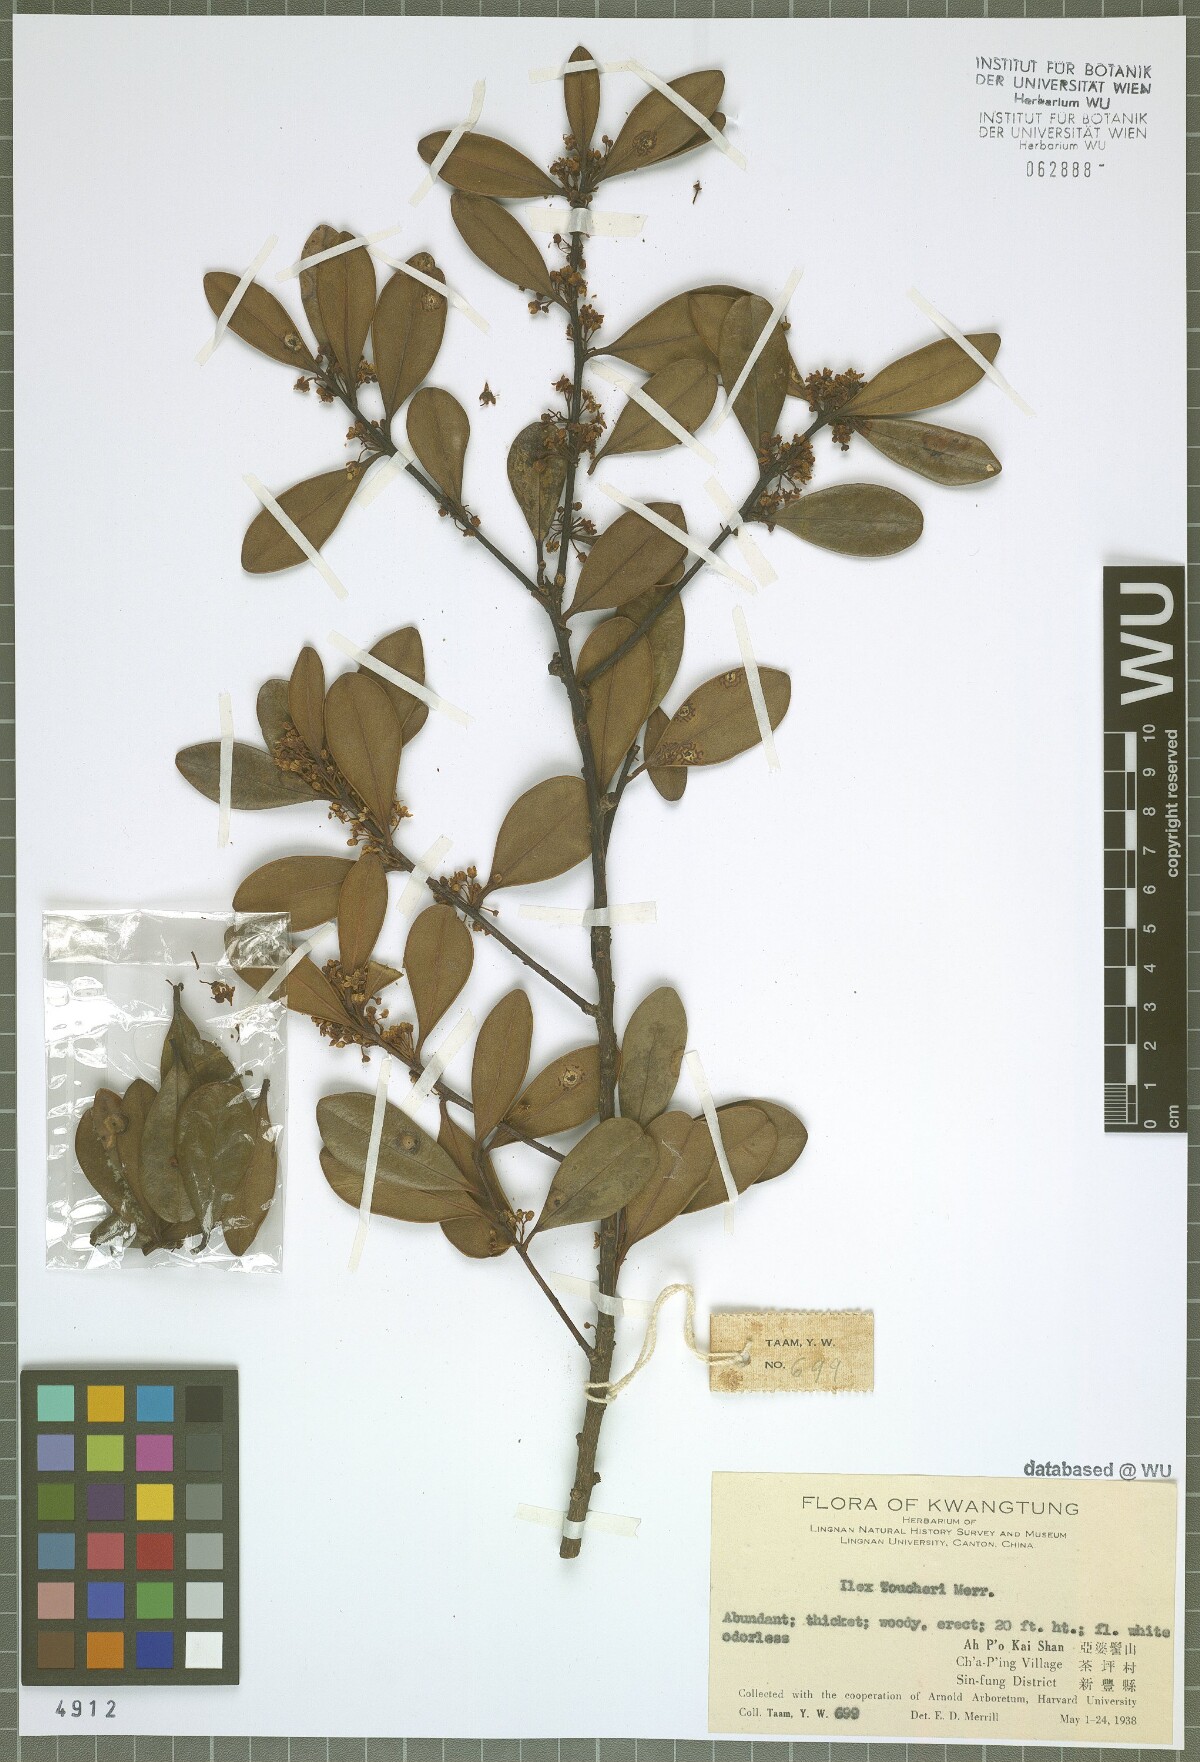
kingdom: Plantae
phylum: Tracheophyta
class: Magnoliopsida
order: Aquifoliales
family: Aquifoliaceae
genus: Ilex
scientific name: Ilex tutcheri
